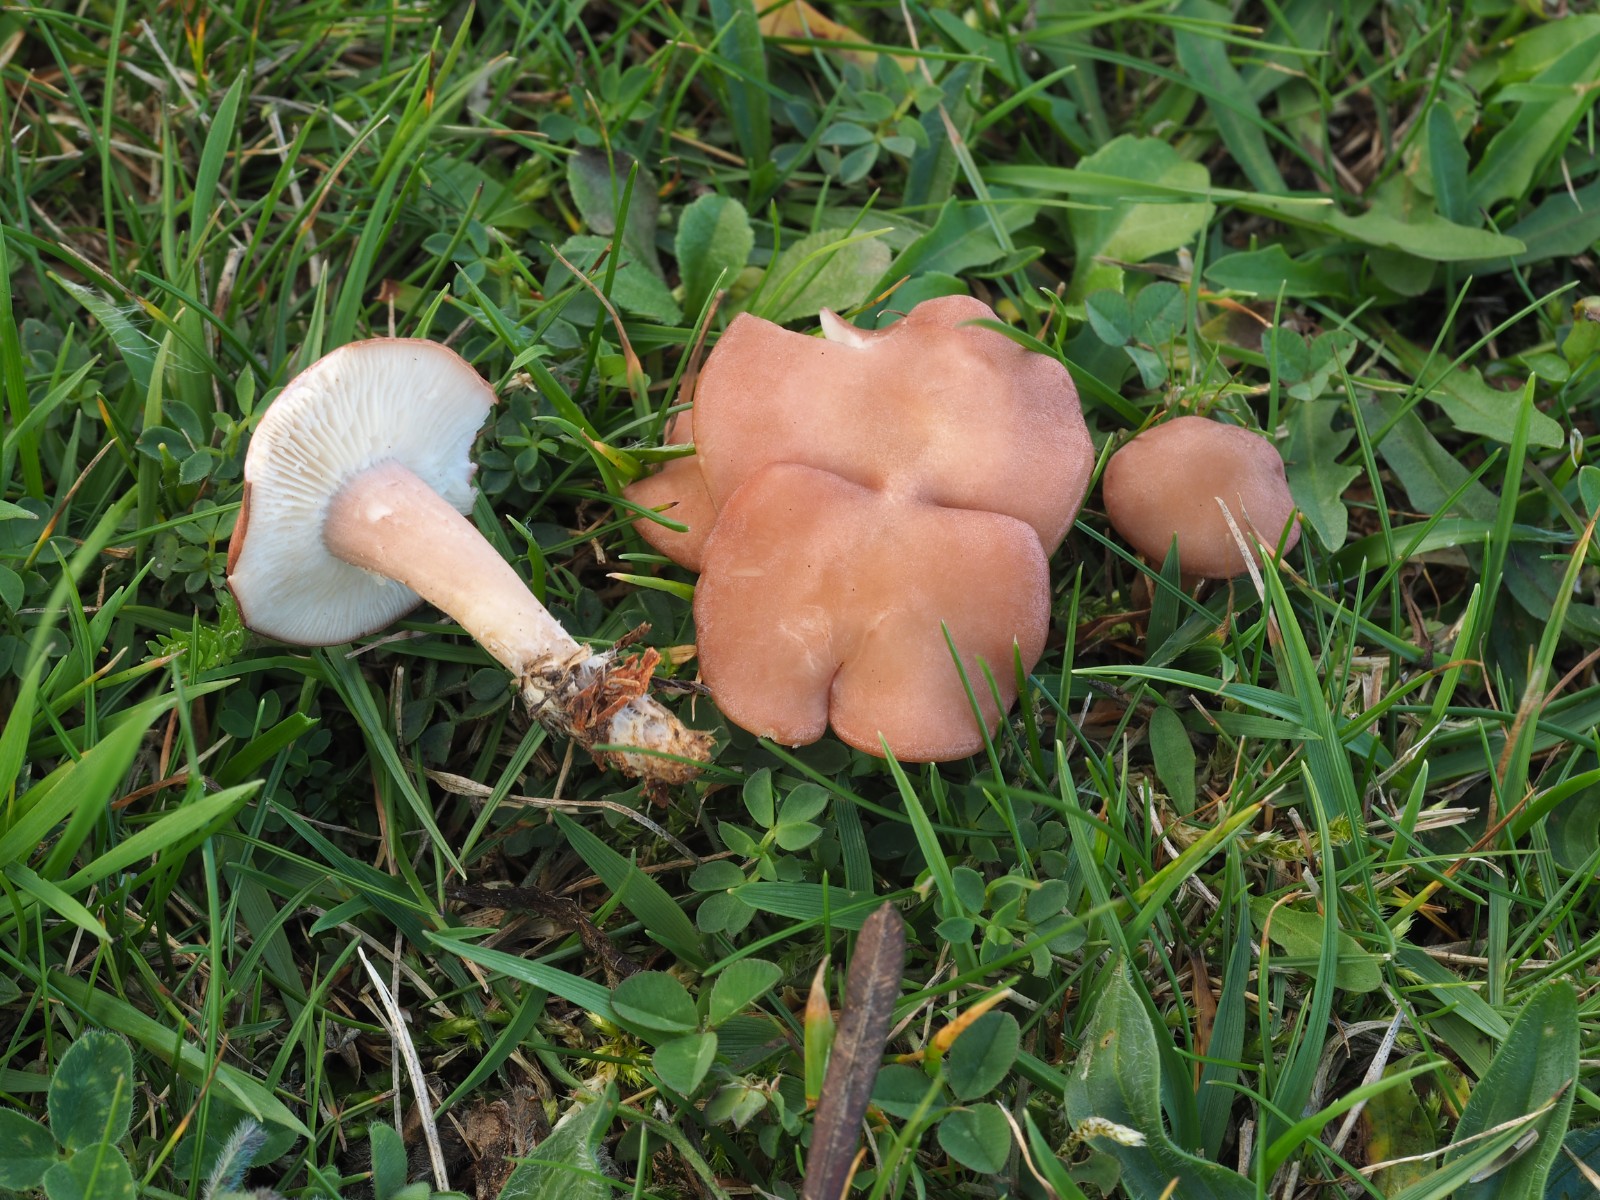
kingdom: Fungi
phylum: Basidiomycota
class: Agaricomycetes
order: Agaricales
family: Lyophyllaceae
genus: Calocybe
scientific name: Calocybe carnea
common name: rosa fagerhat
